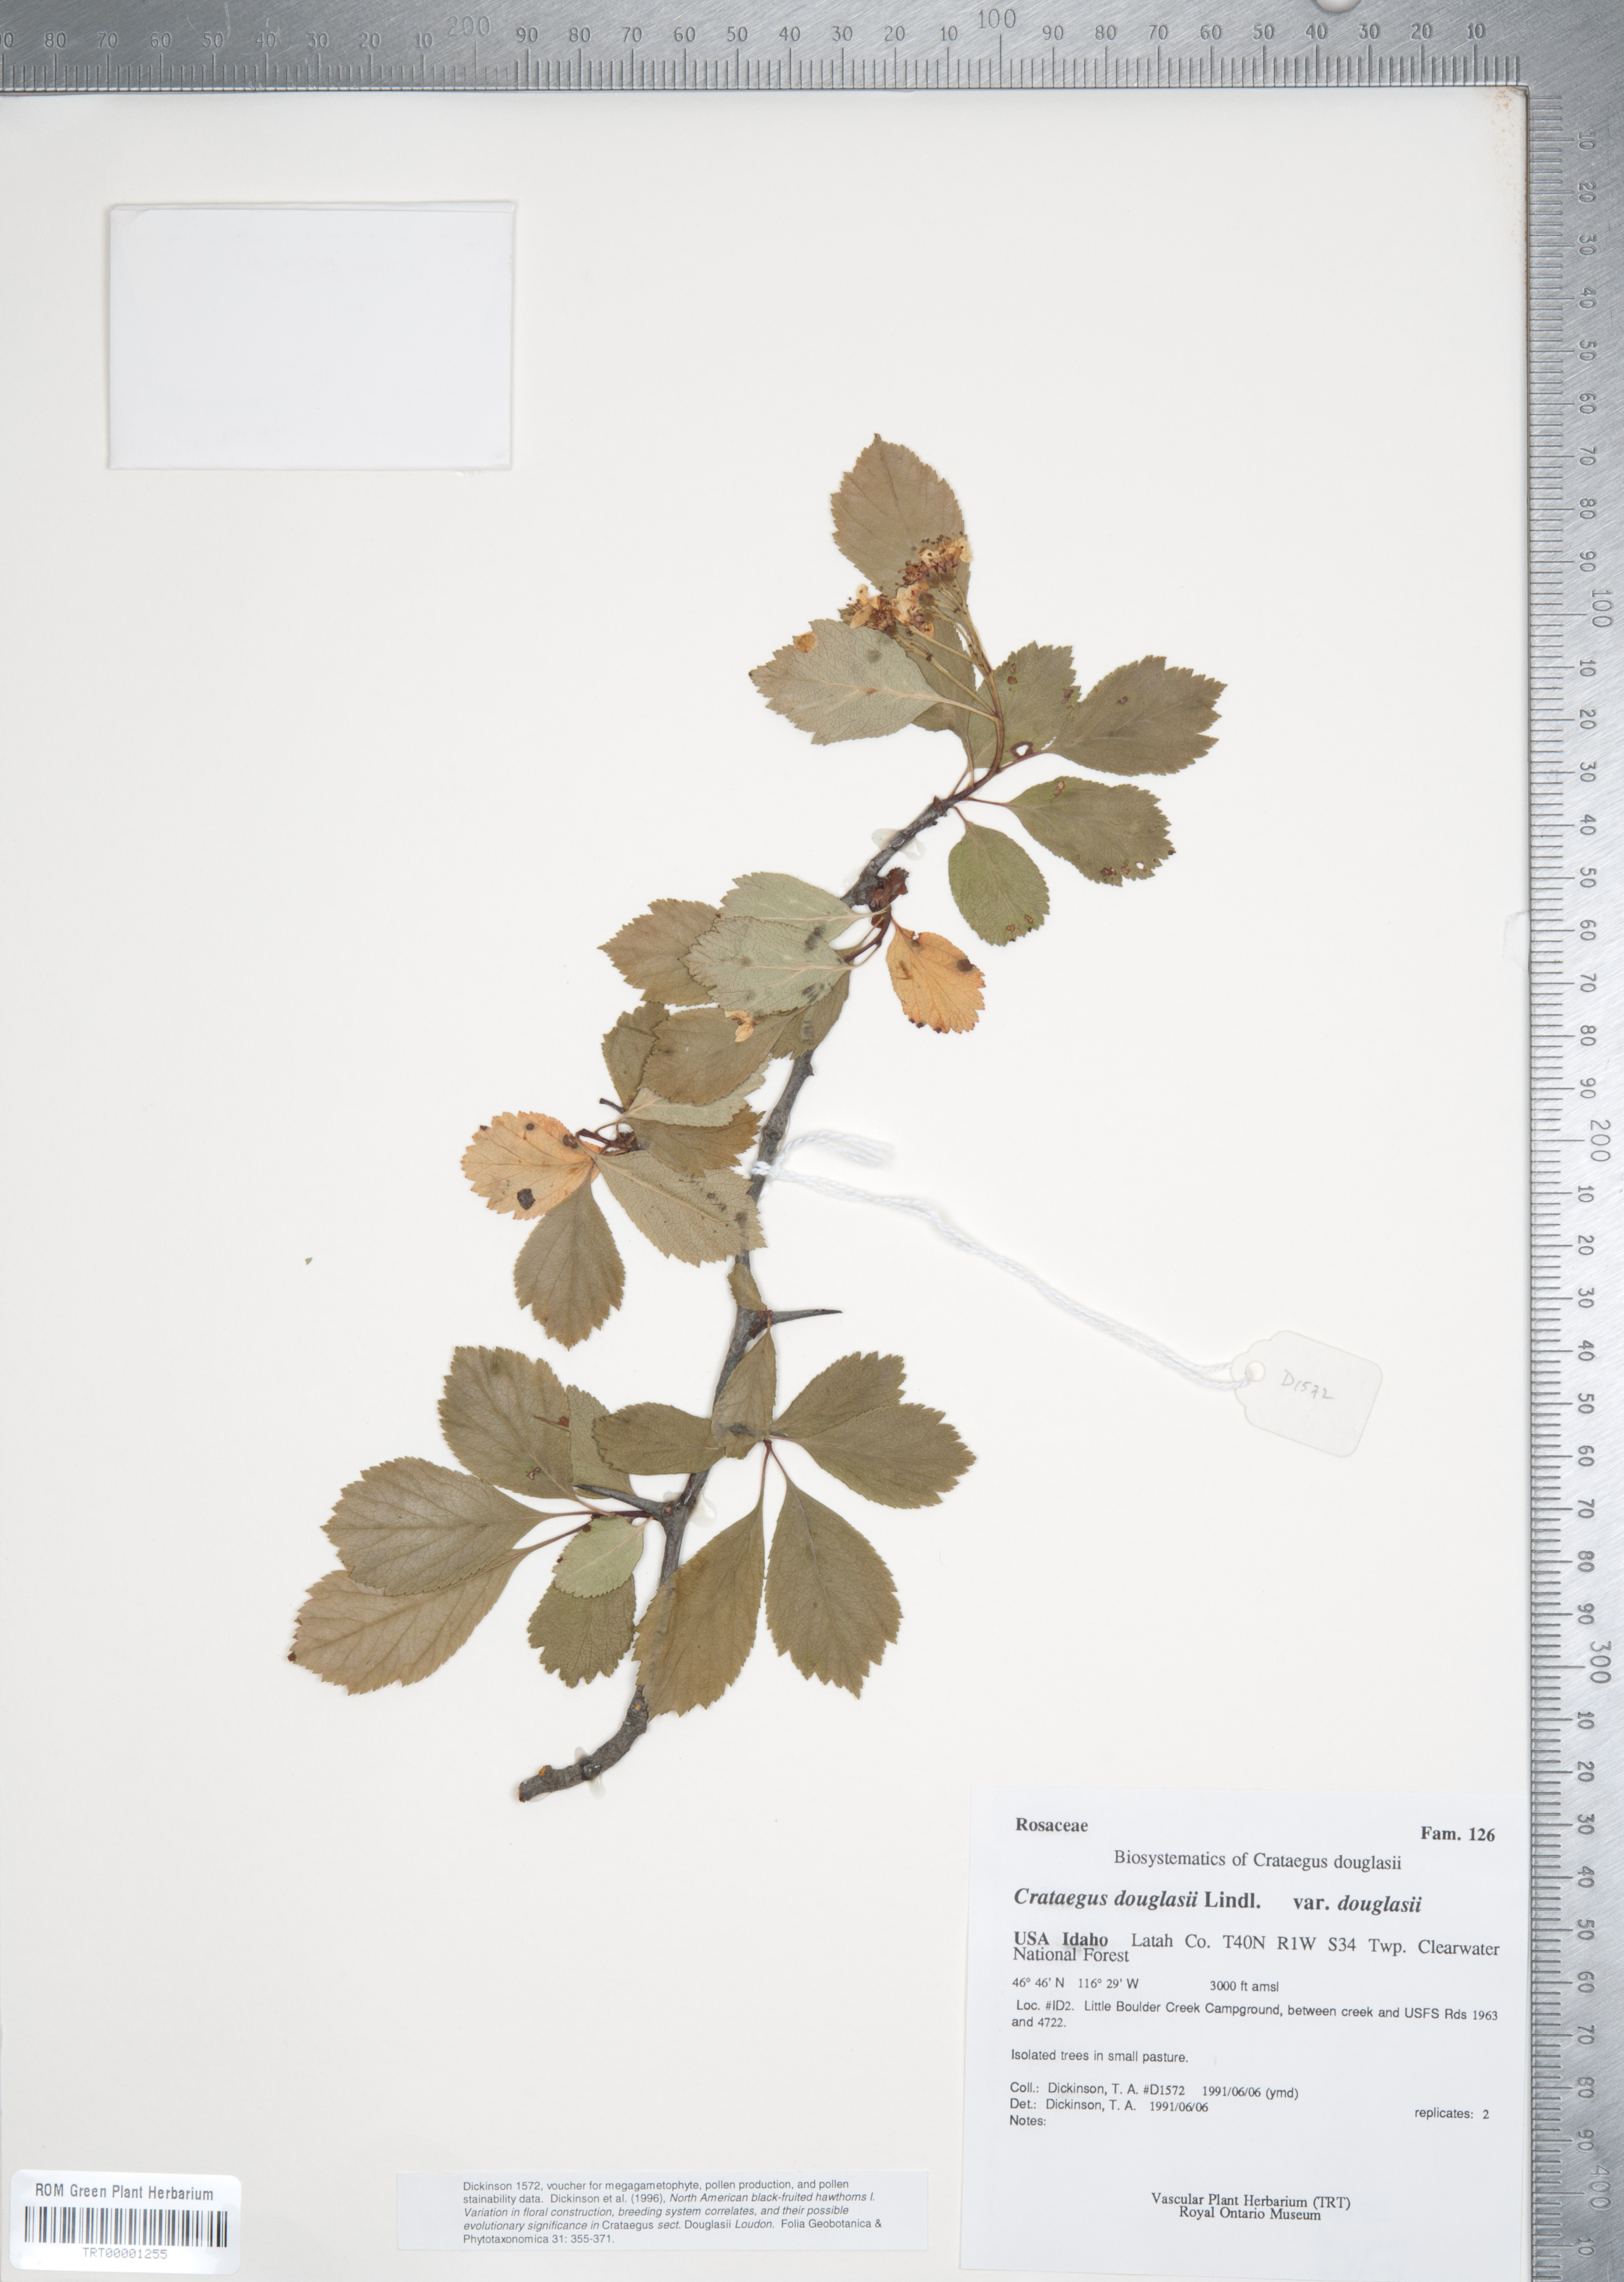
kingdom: Plantae
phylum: Tracheophyta
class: Magnoliopsida
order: Rosales
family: Rosaceae
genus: Crataegus
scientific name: Crataegus douglasii
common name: Black hawthorn
